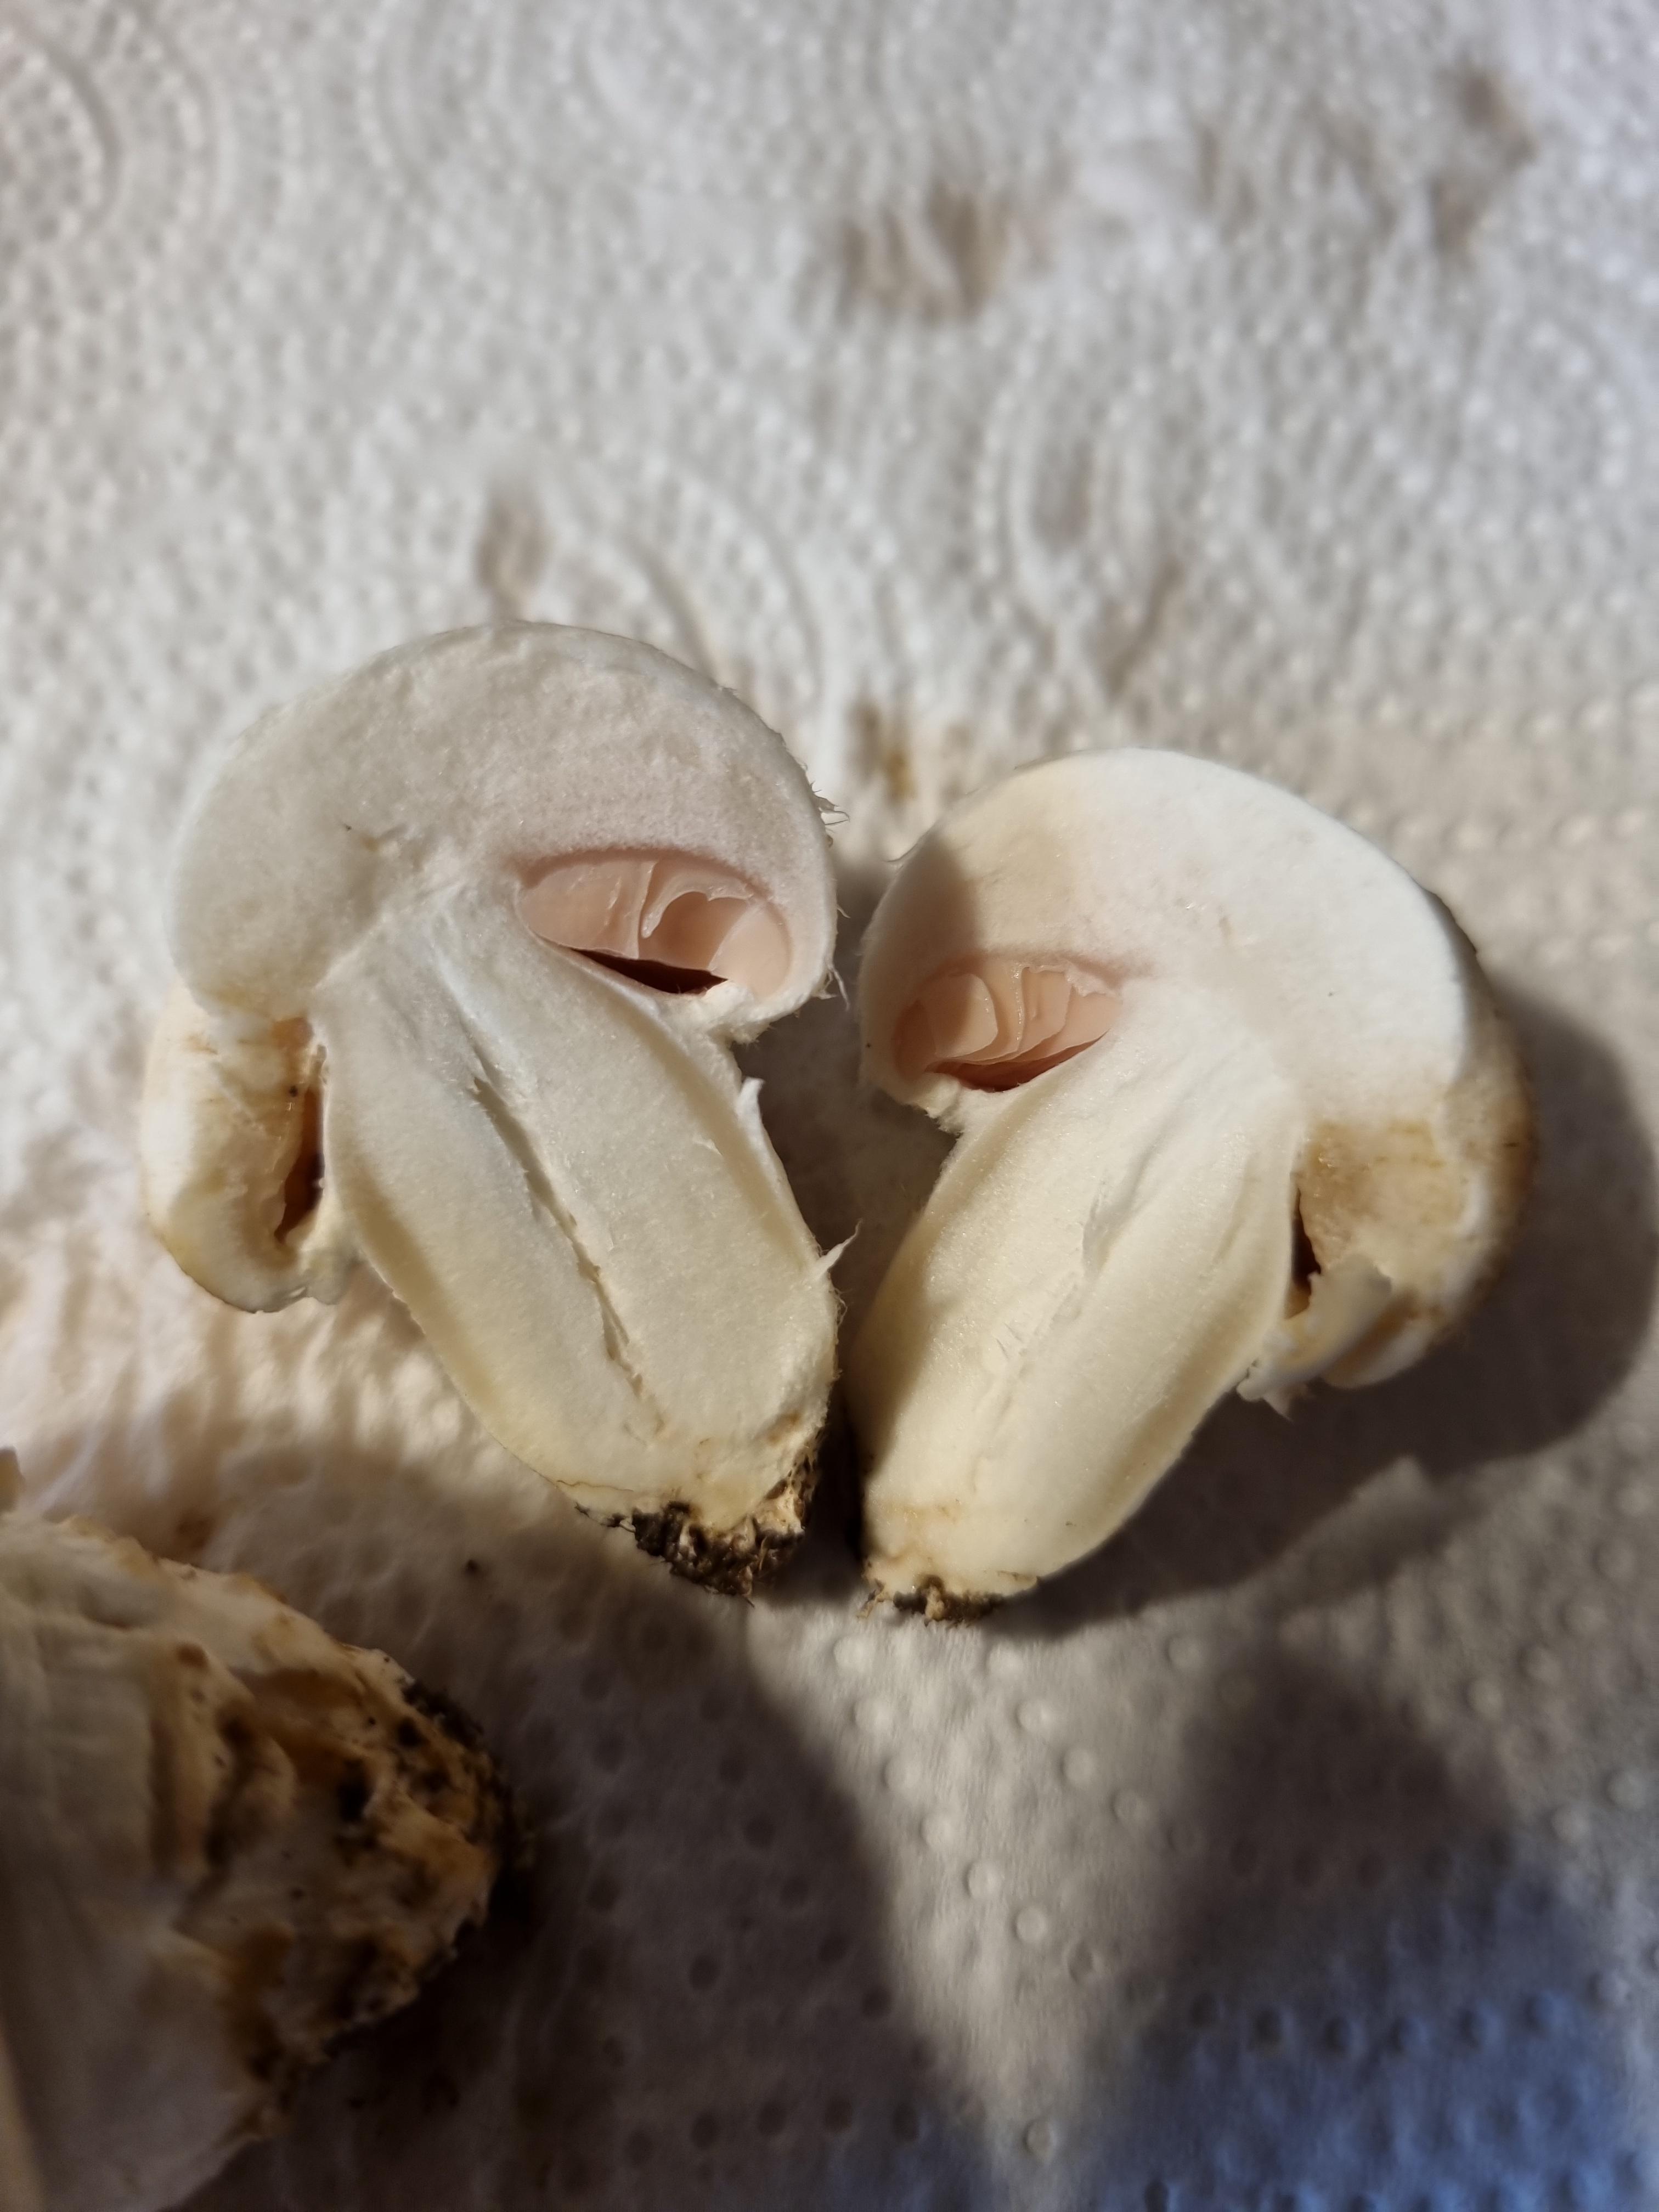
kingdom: Fungi
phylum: Basidiomycota
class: Agaricomycetes
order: Agaricales
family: Agaricaceae
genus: Agaricus
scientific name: Agaricus
